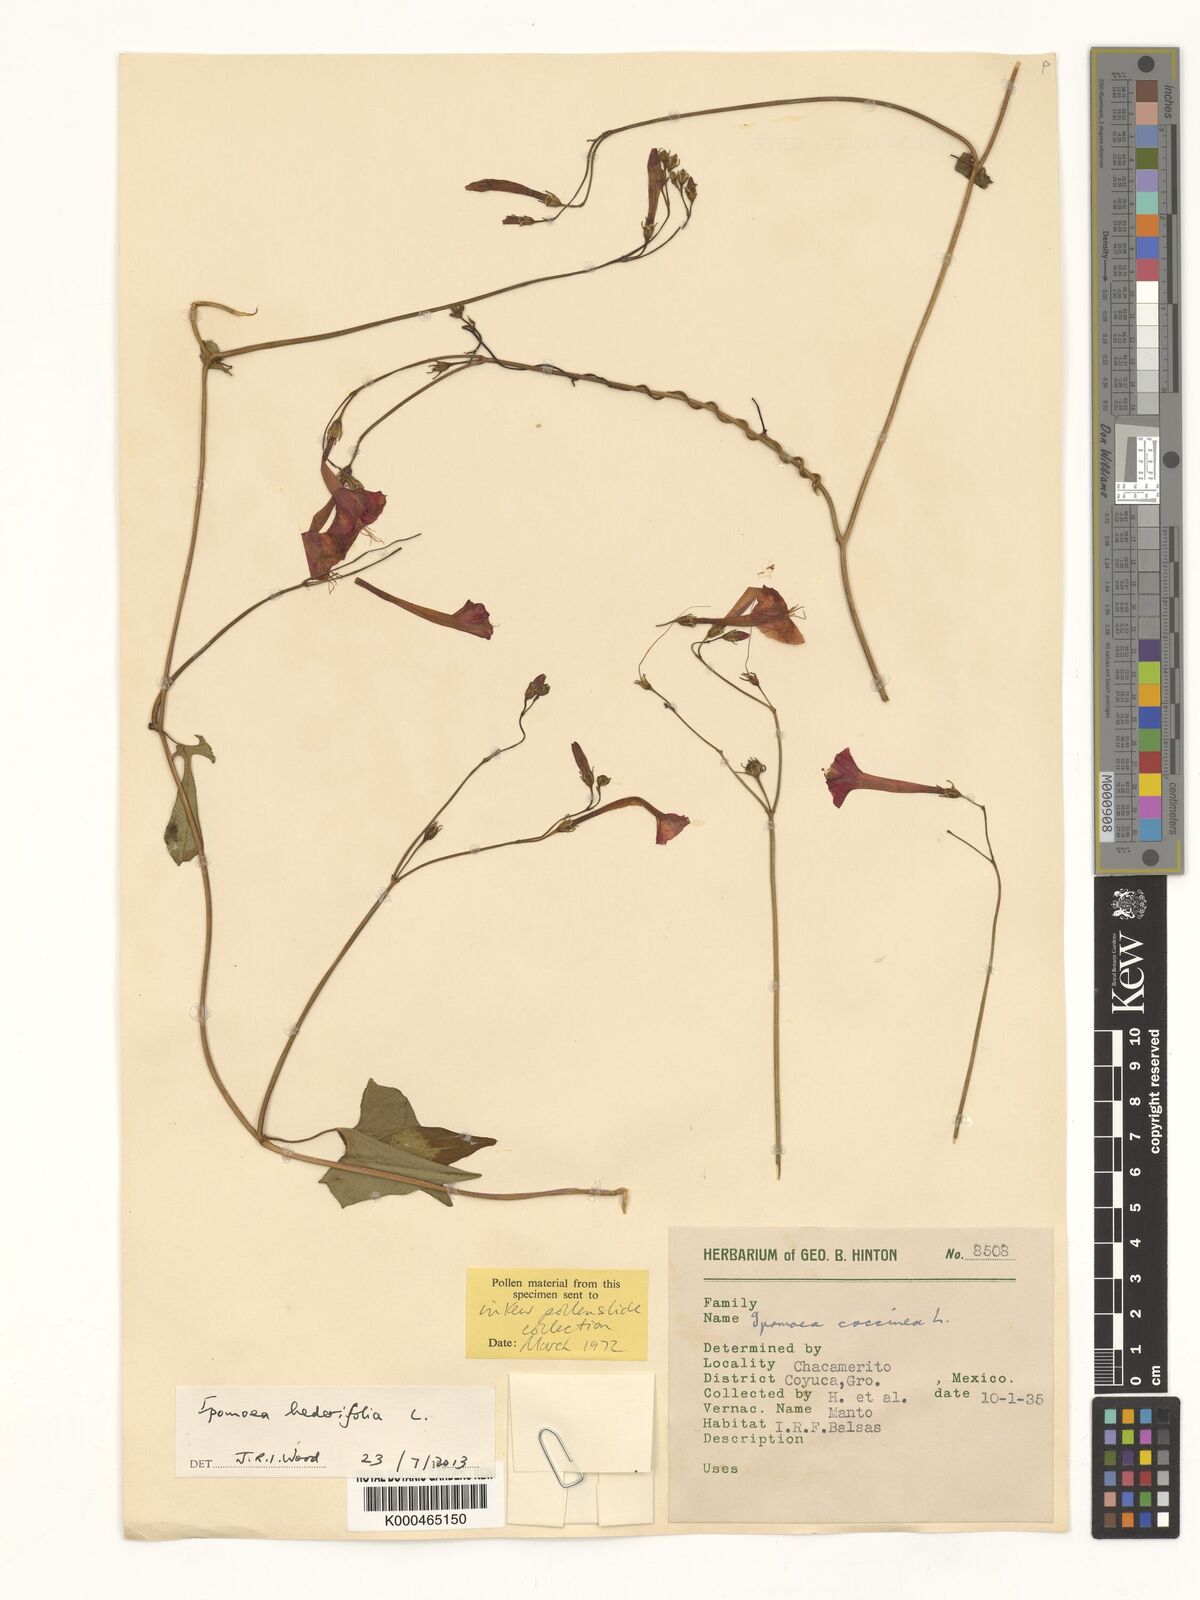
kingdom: Plantae
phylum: Tracheophyta
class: Magnoliopsida
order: Solanales
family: Convolvulaceae
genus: Ipomoea
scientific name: Ipomoea coccinea
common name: Red morning-glory
